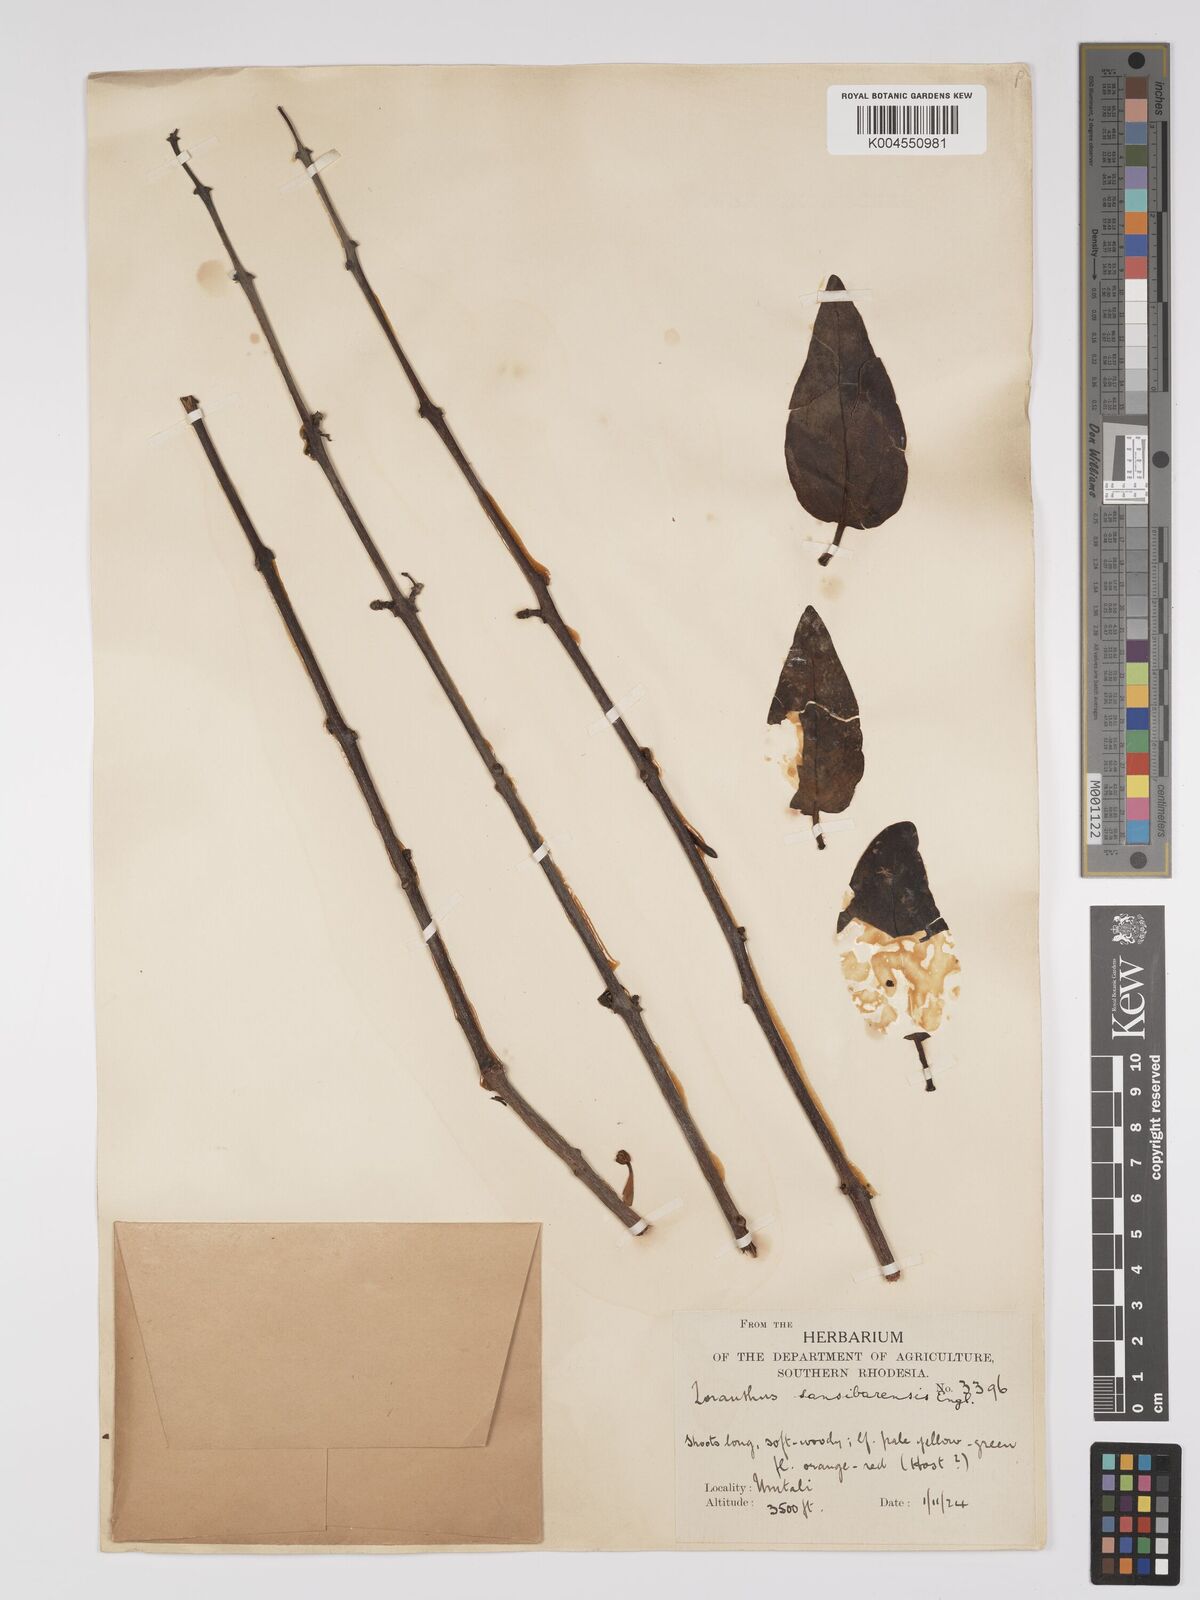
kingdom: Plantae
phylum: Tracheophyta
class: Magnoliopsida
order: Santalales
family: Loranthaceae
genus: Agelanthus
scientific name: Agelanthus flammeus
